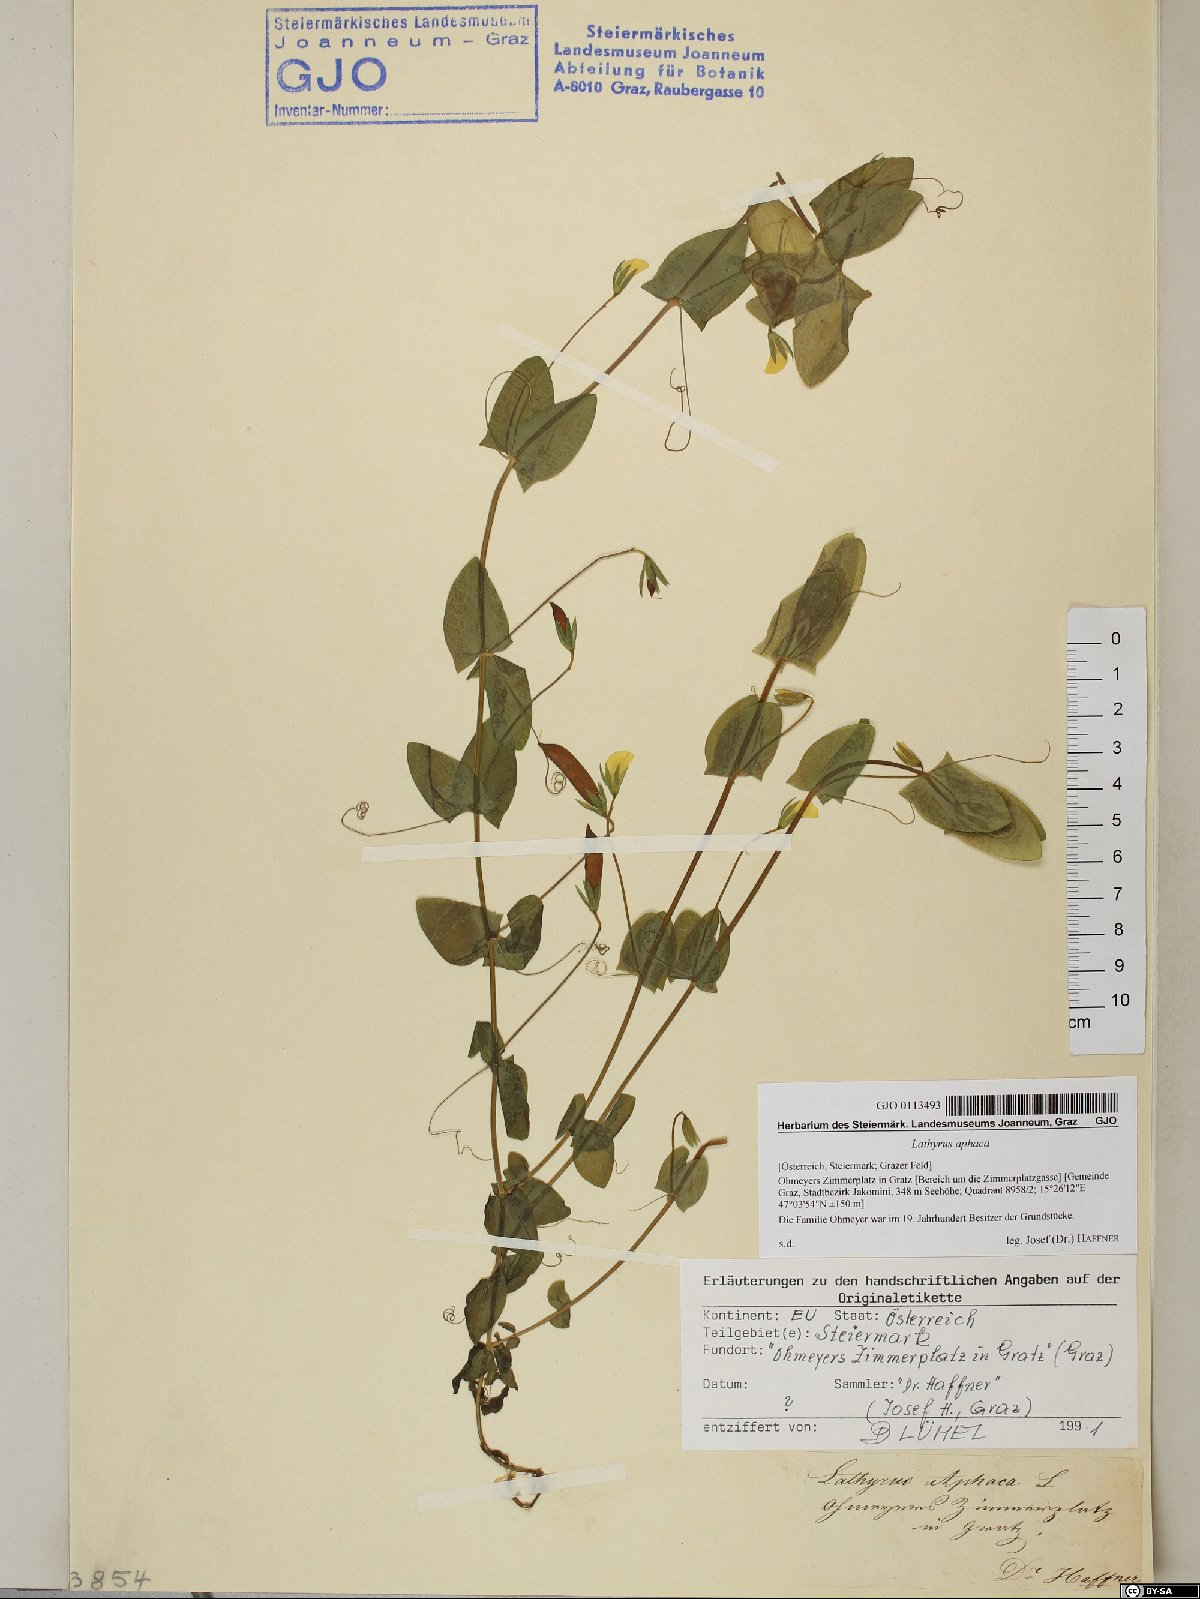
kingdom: Plantae
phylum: Tracheophyta
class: Magnoliopsida
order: Fabales
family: Fabaceae
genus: Lathyrus
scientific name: Lathyrus aphaca
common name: Yellow vetchling
